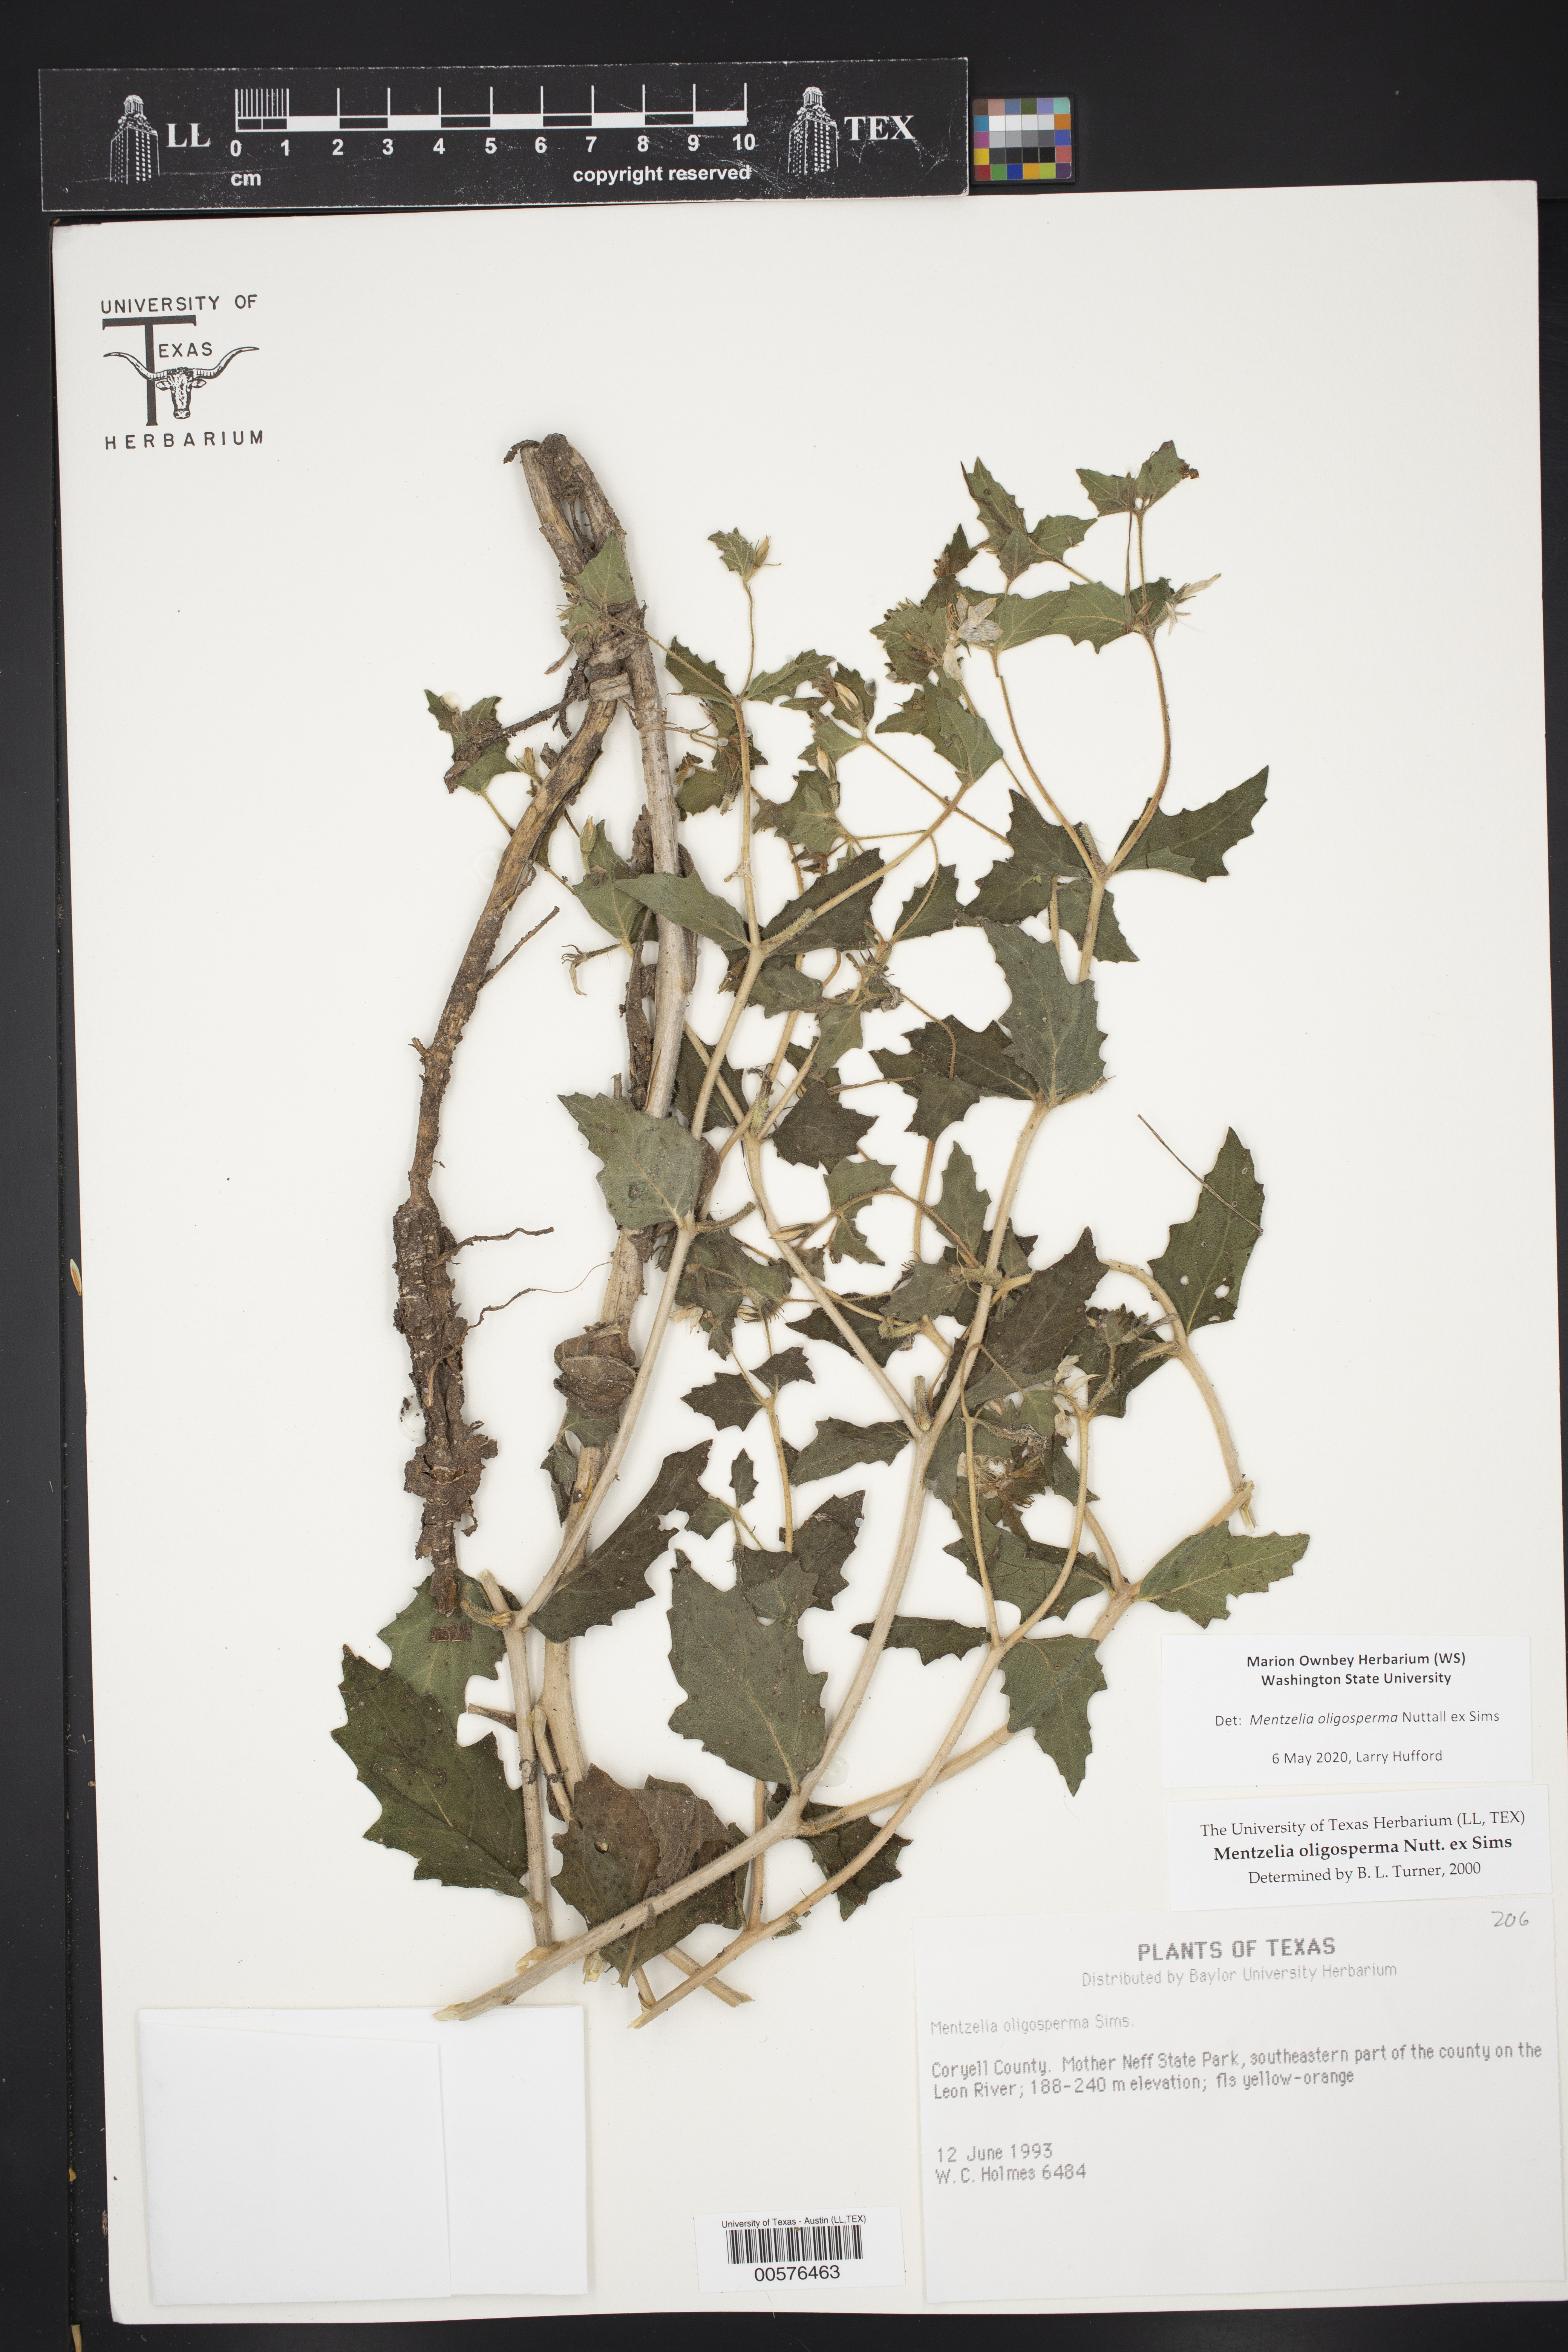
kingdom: Plantae
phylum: Tracheophyta
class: Magnoliopsida
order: Cornales
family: Loasaceae
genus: Mentzelia
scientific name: Mentzelia oligosperma
